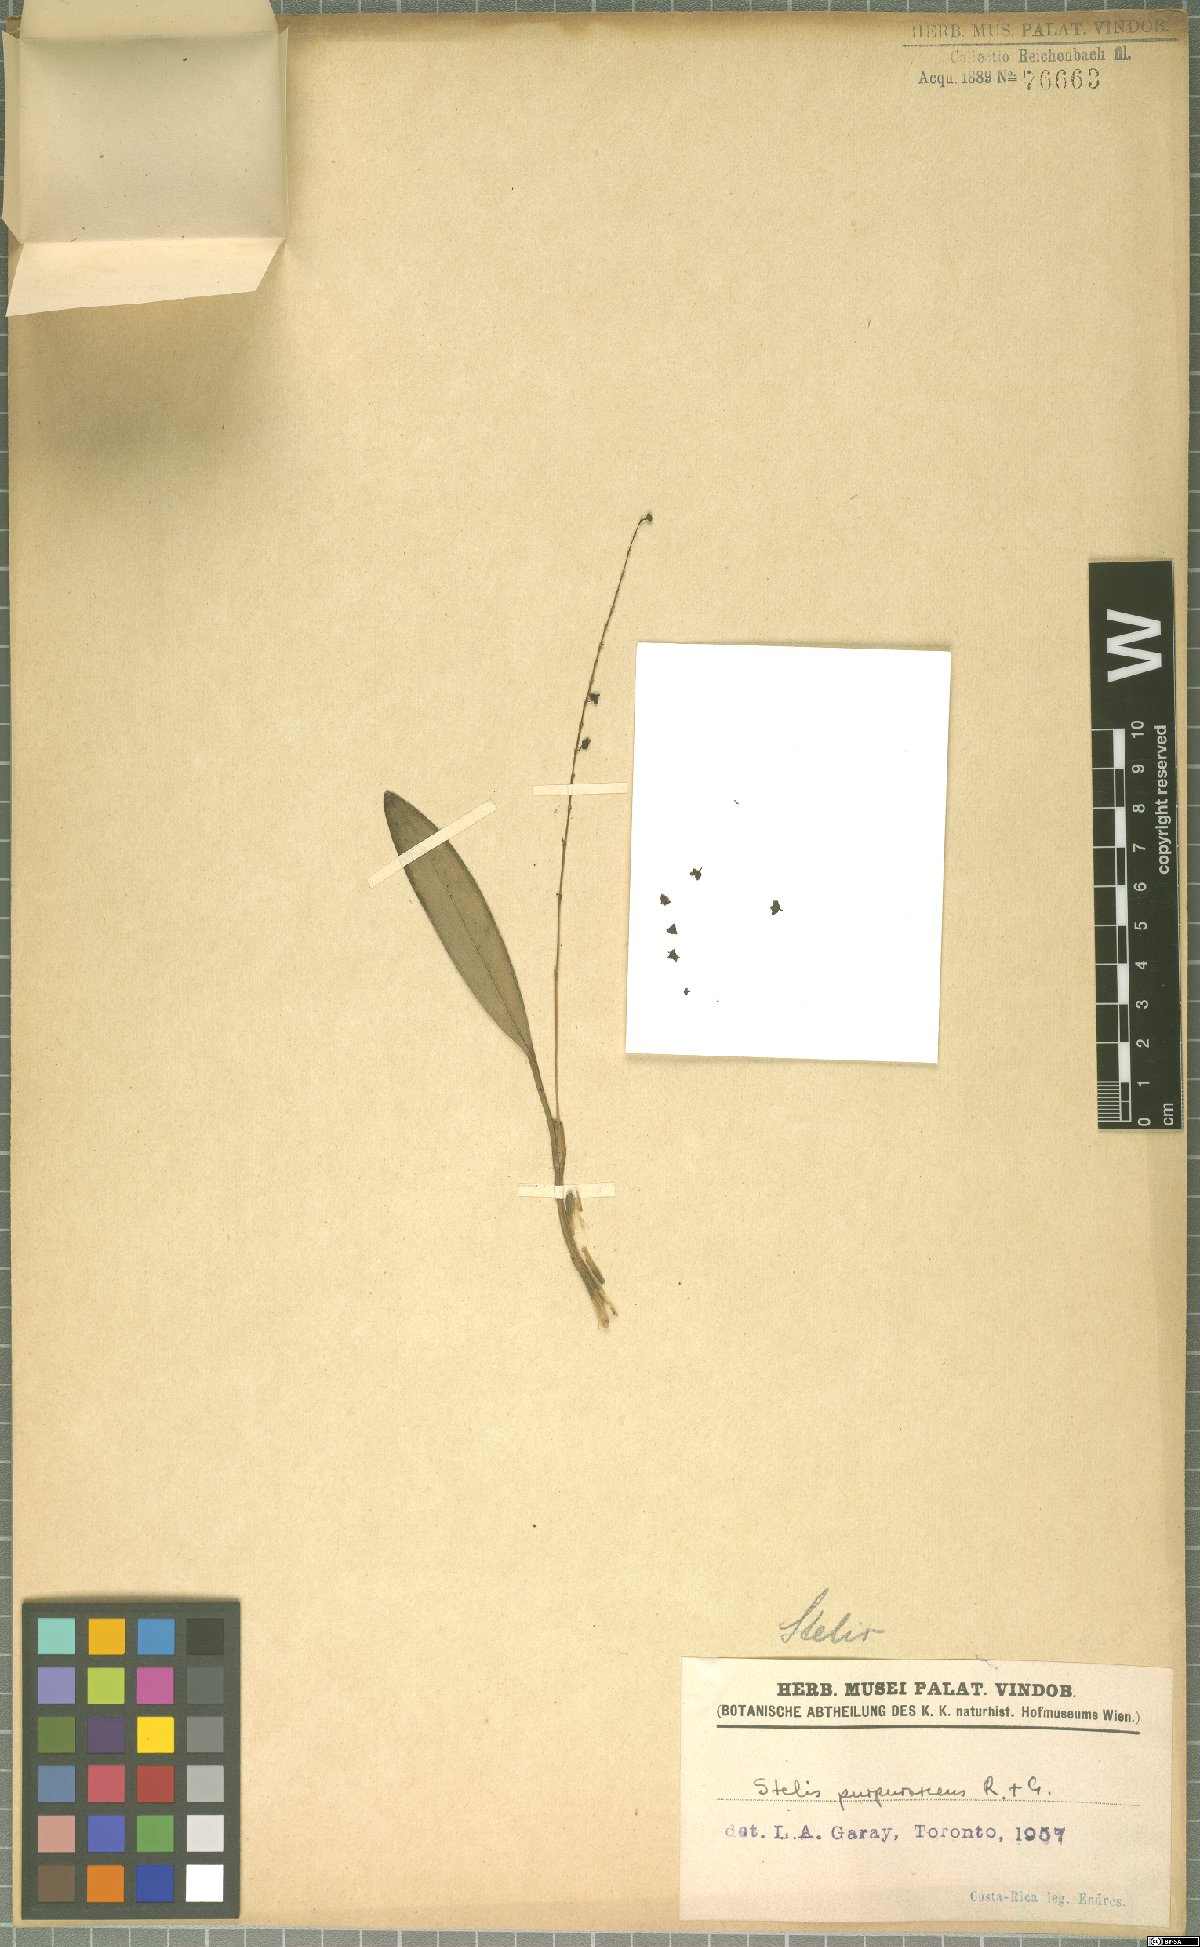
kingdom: Plantae
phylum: Tracheophyta
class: Liliopsida
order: Asparagales
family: Orchidaceae
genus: Stelis
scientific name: Stelis purpurascens
